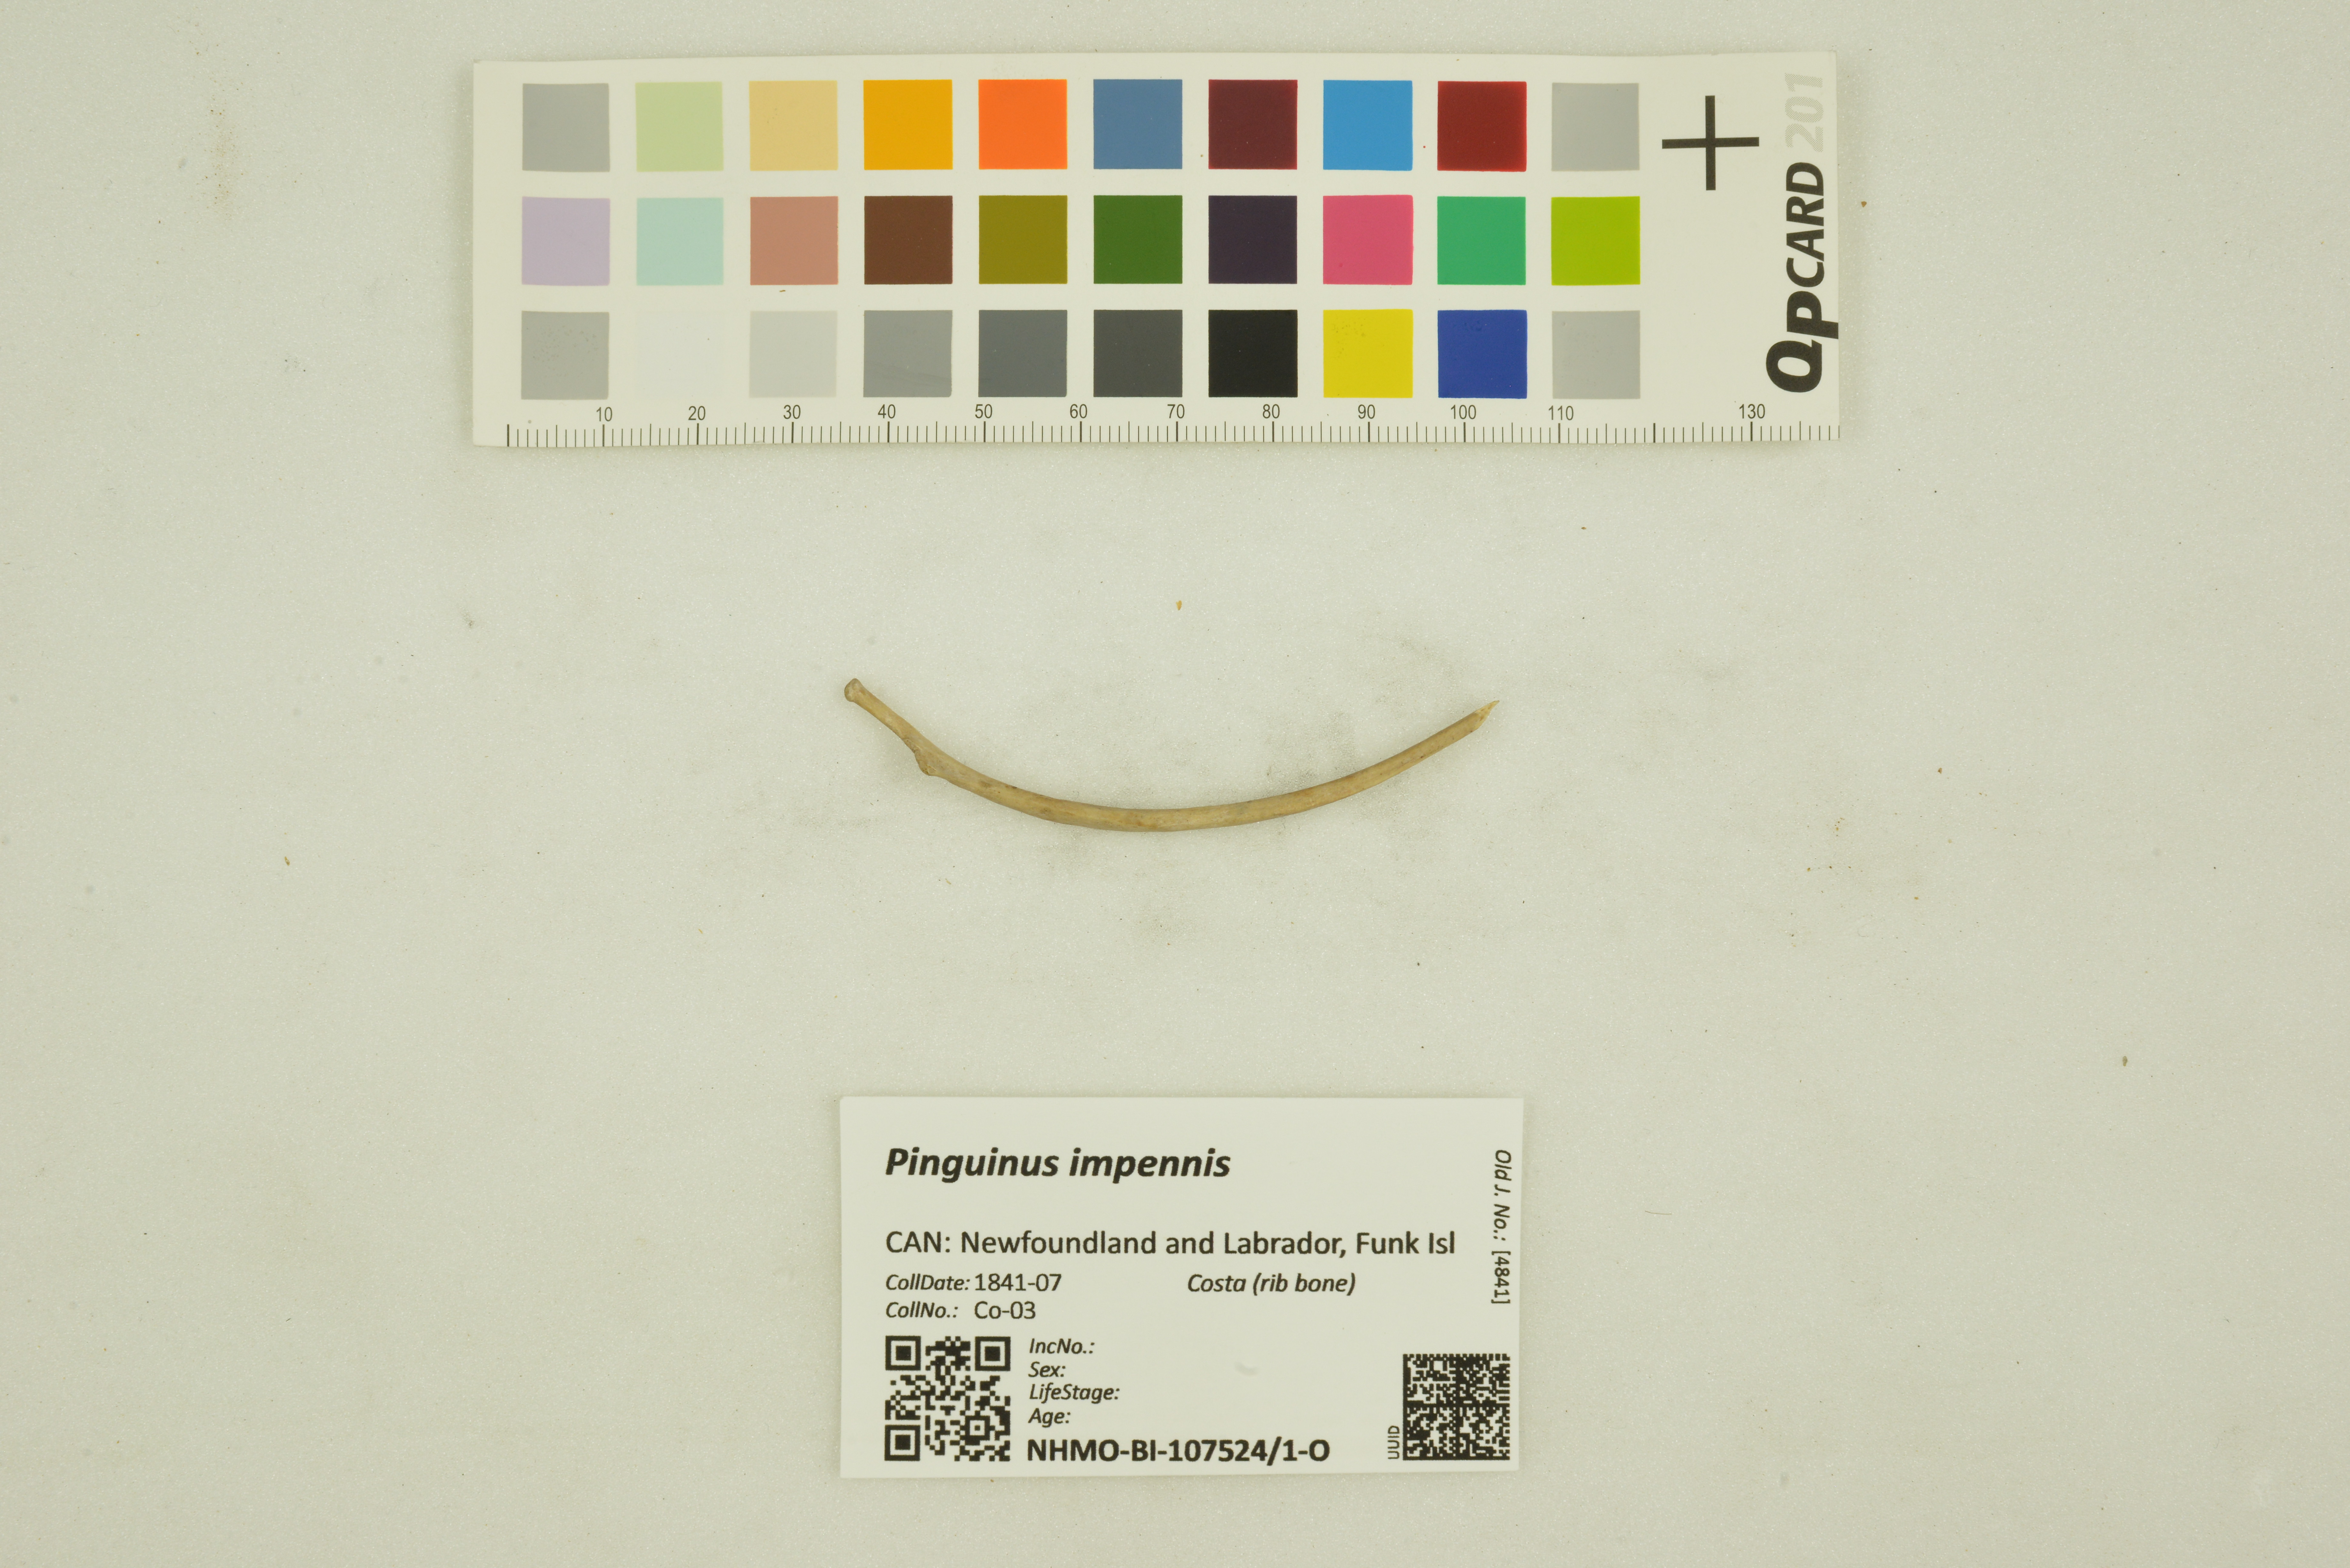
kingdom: Animalia
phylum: Chordata
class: Aves
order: Charadriiformes
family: Alcidae
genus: Pinguinus
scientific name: Pinguinus impennis
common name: Great auk
